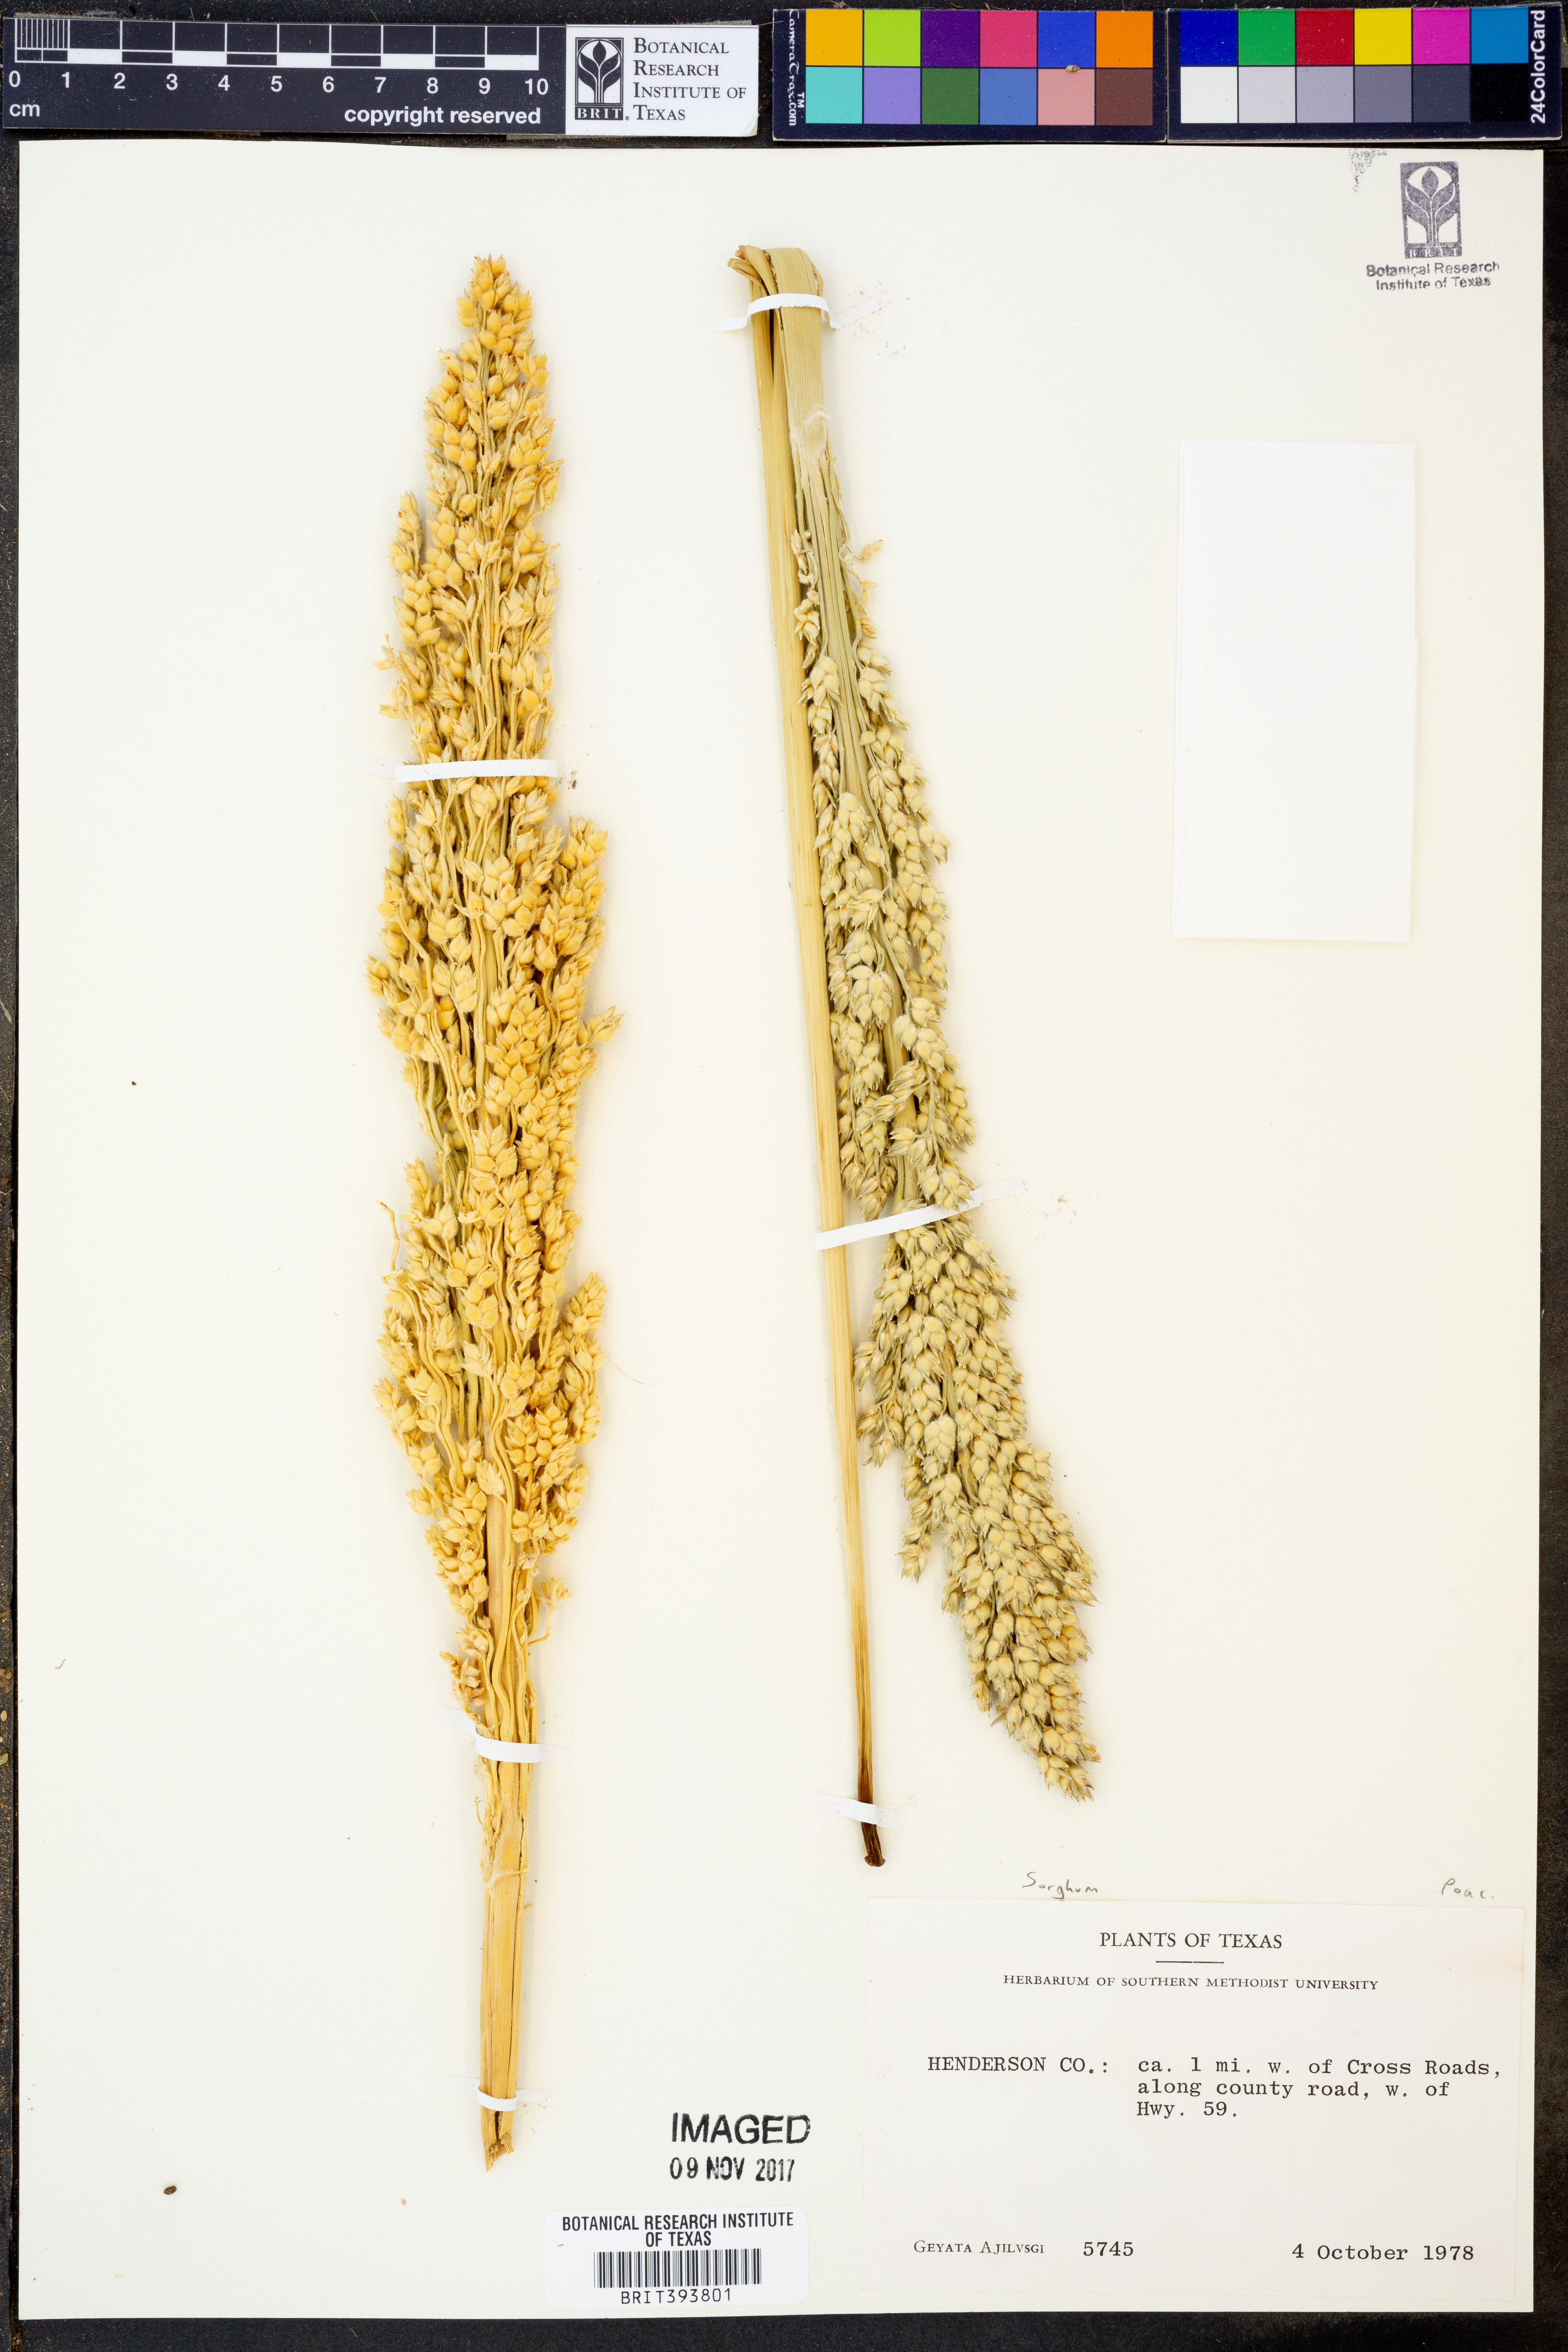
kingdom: Plantae
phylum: Tracheophyta
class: Liliopsida
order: Poales
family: Poaceae
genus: Sorghum
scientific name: Sorghum
